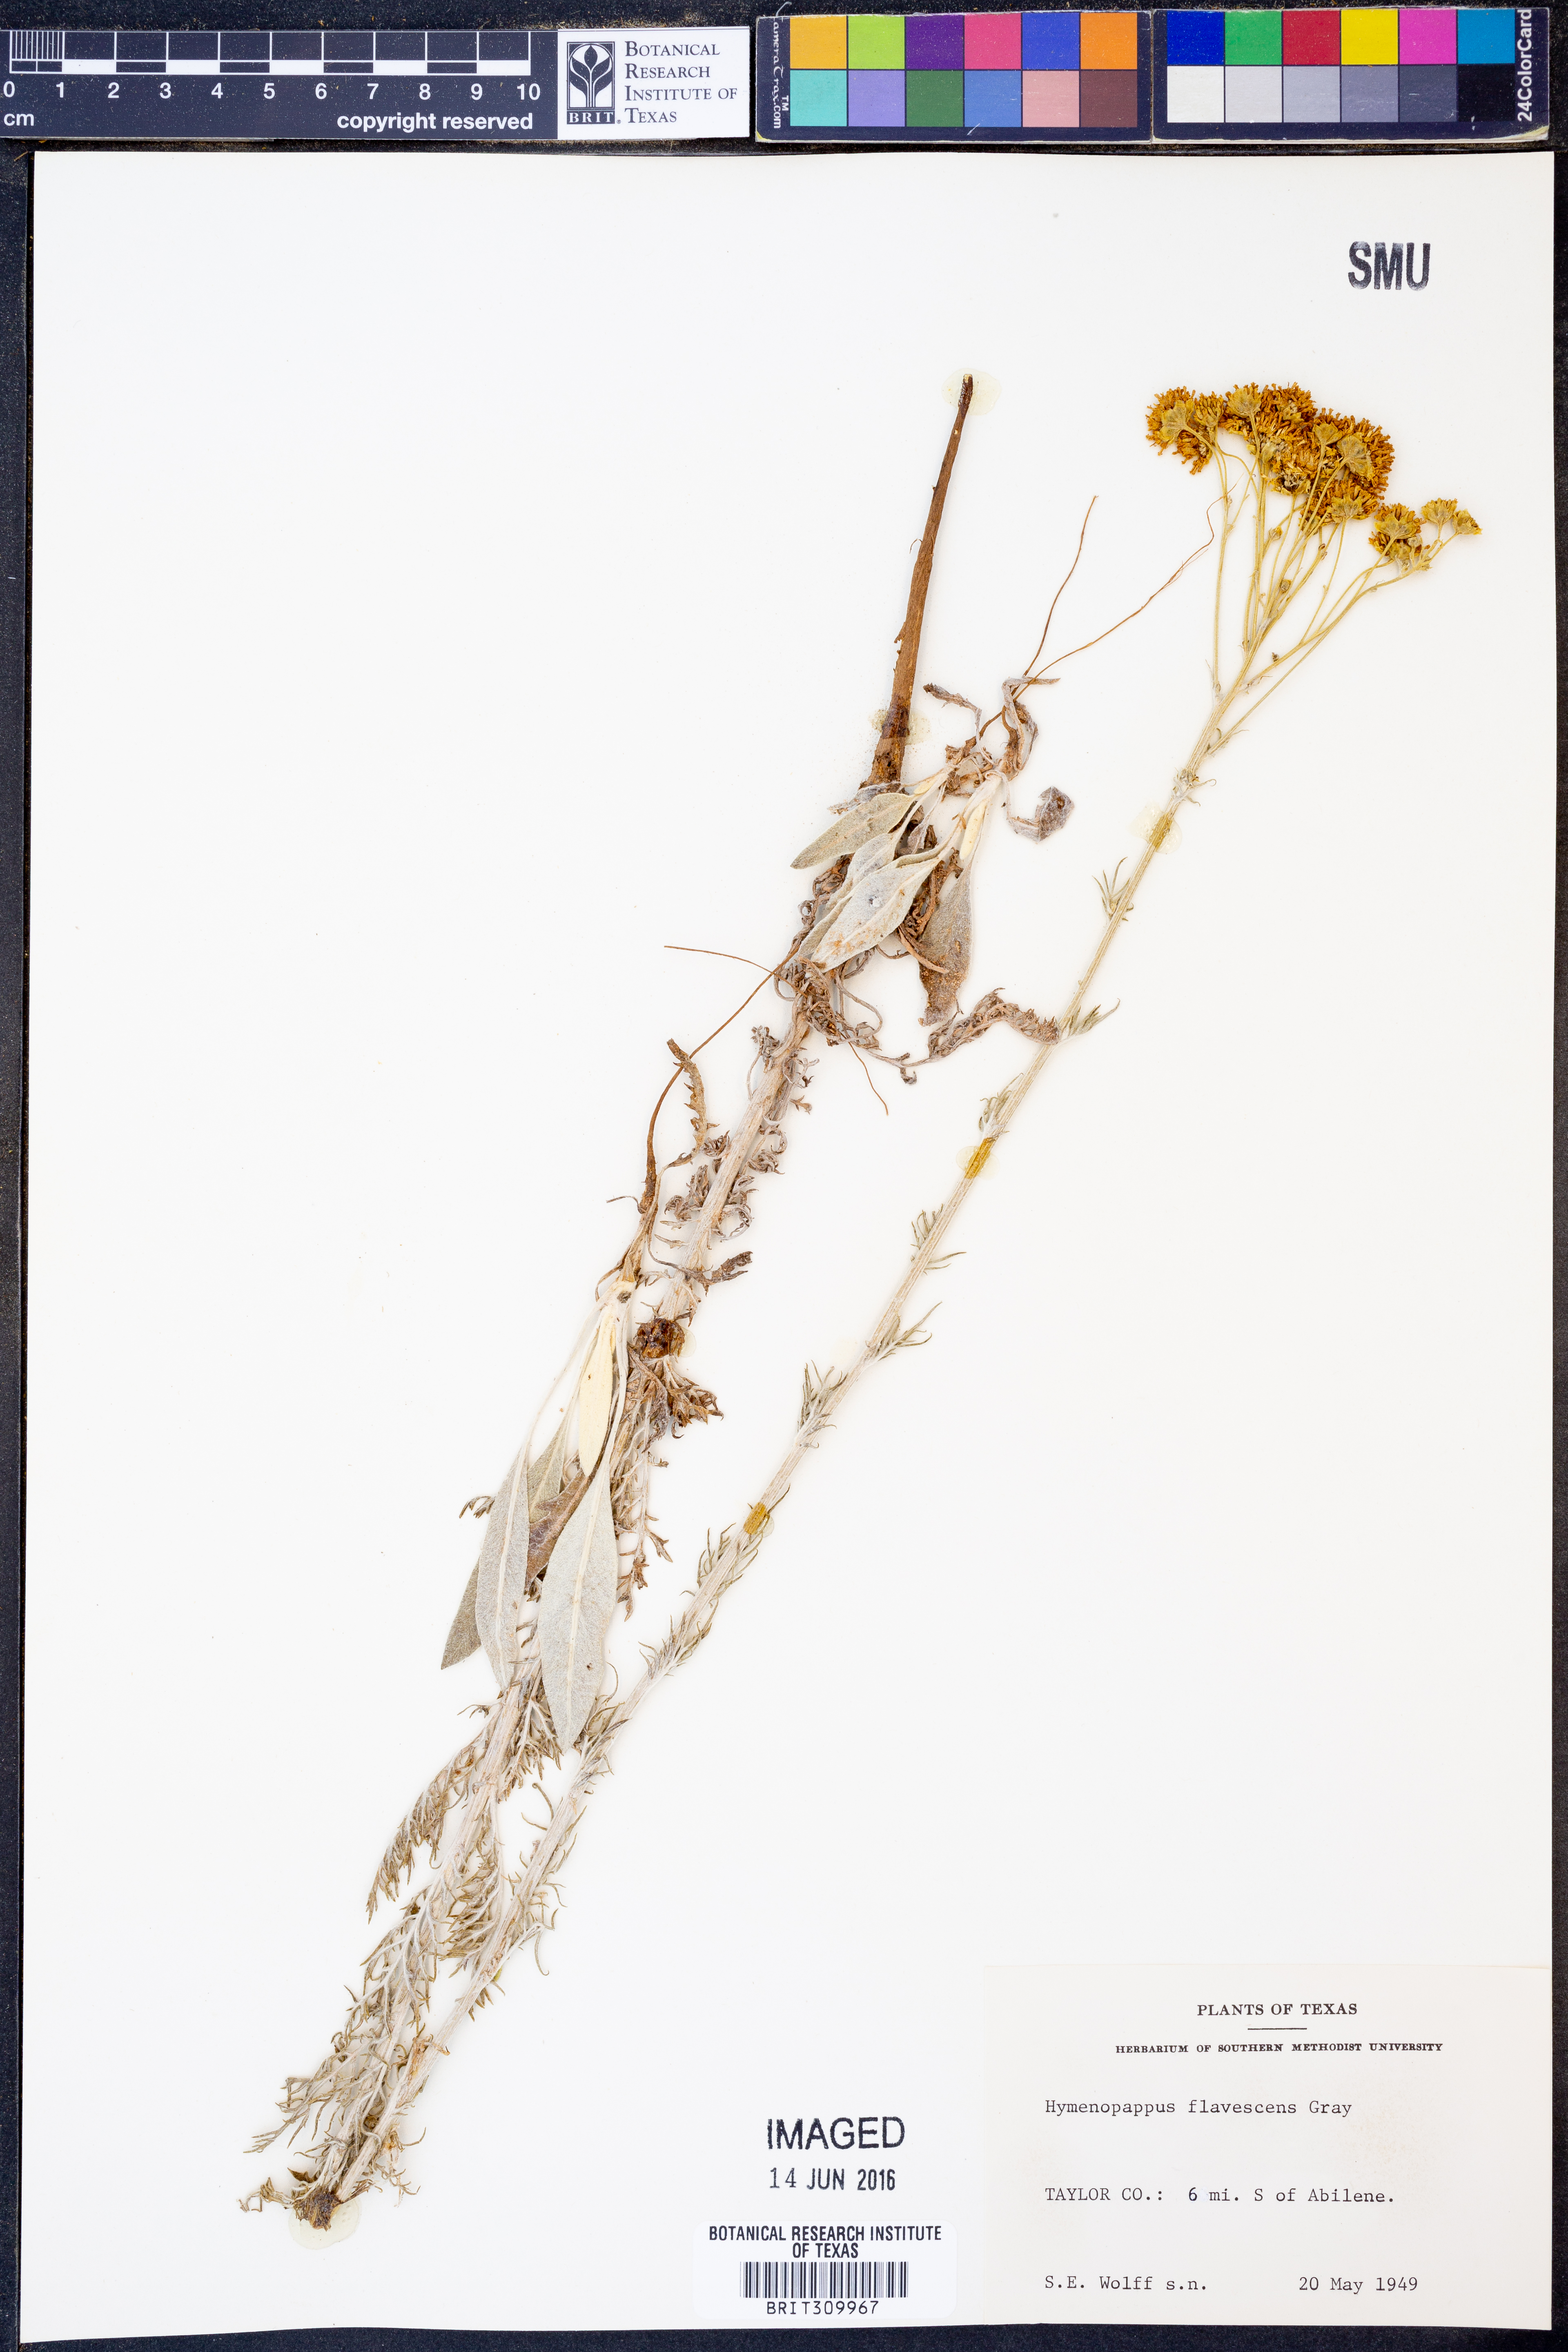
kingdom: Plantae
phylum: Tracheophyta
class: Magnoliopsida
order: Asterales
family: Asteraceae
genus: Hymenopappus
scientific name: Hymenopappus flavescens
